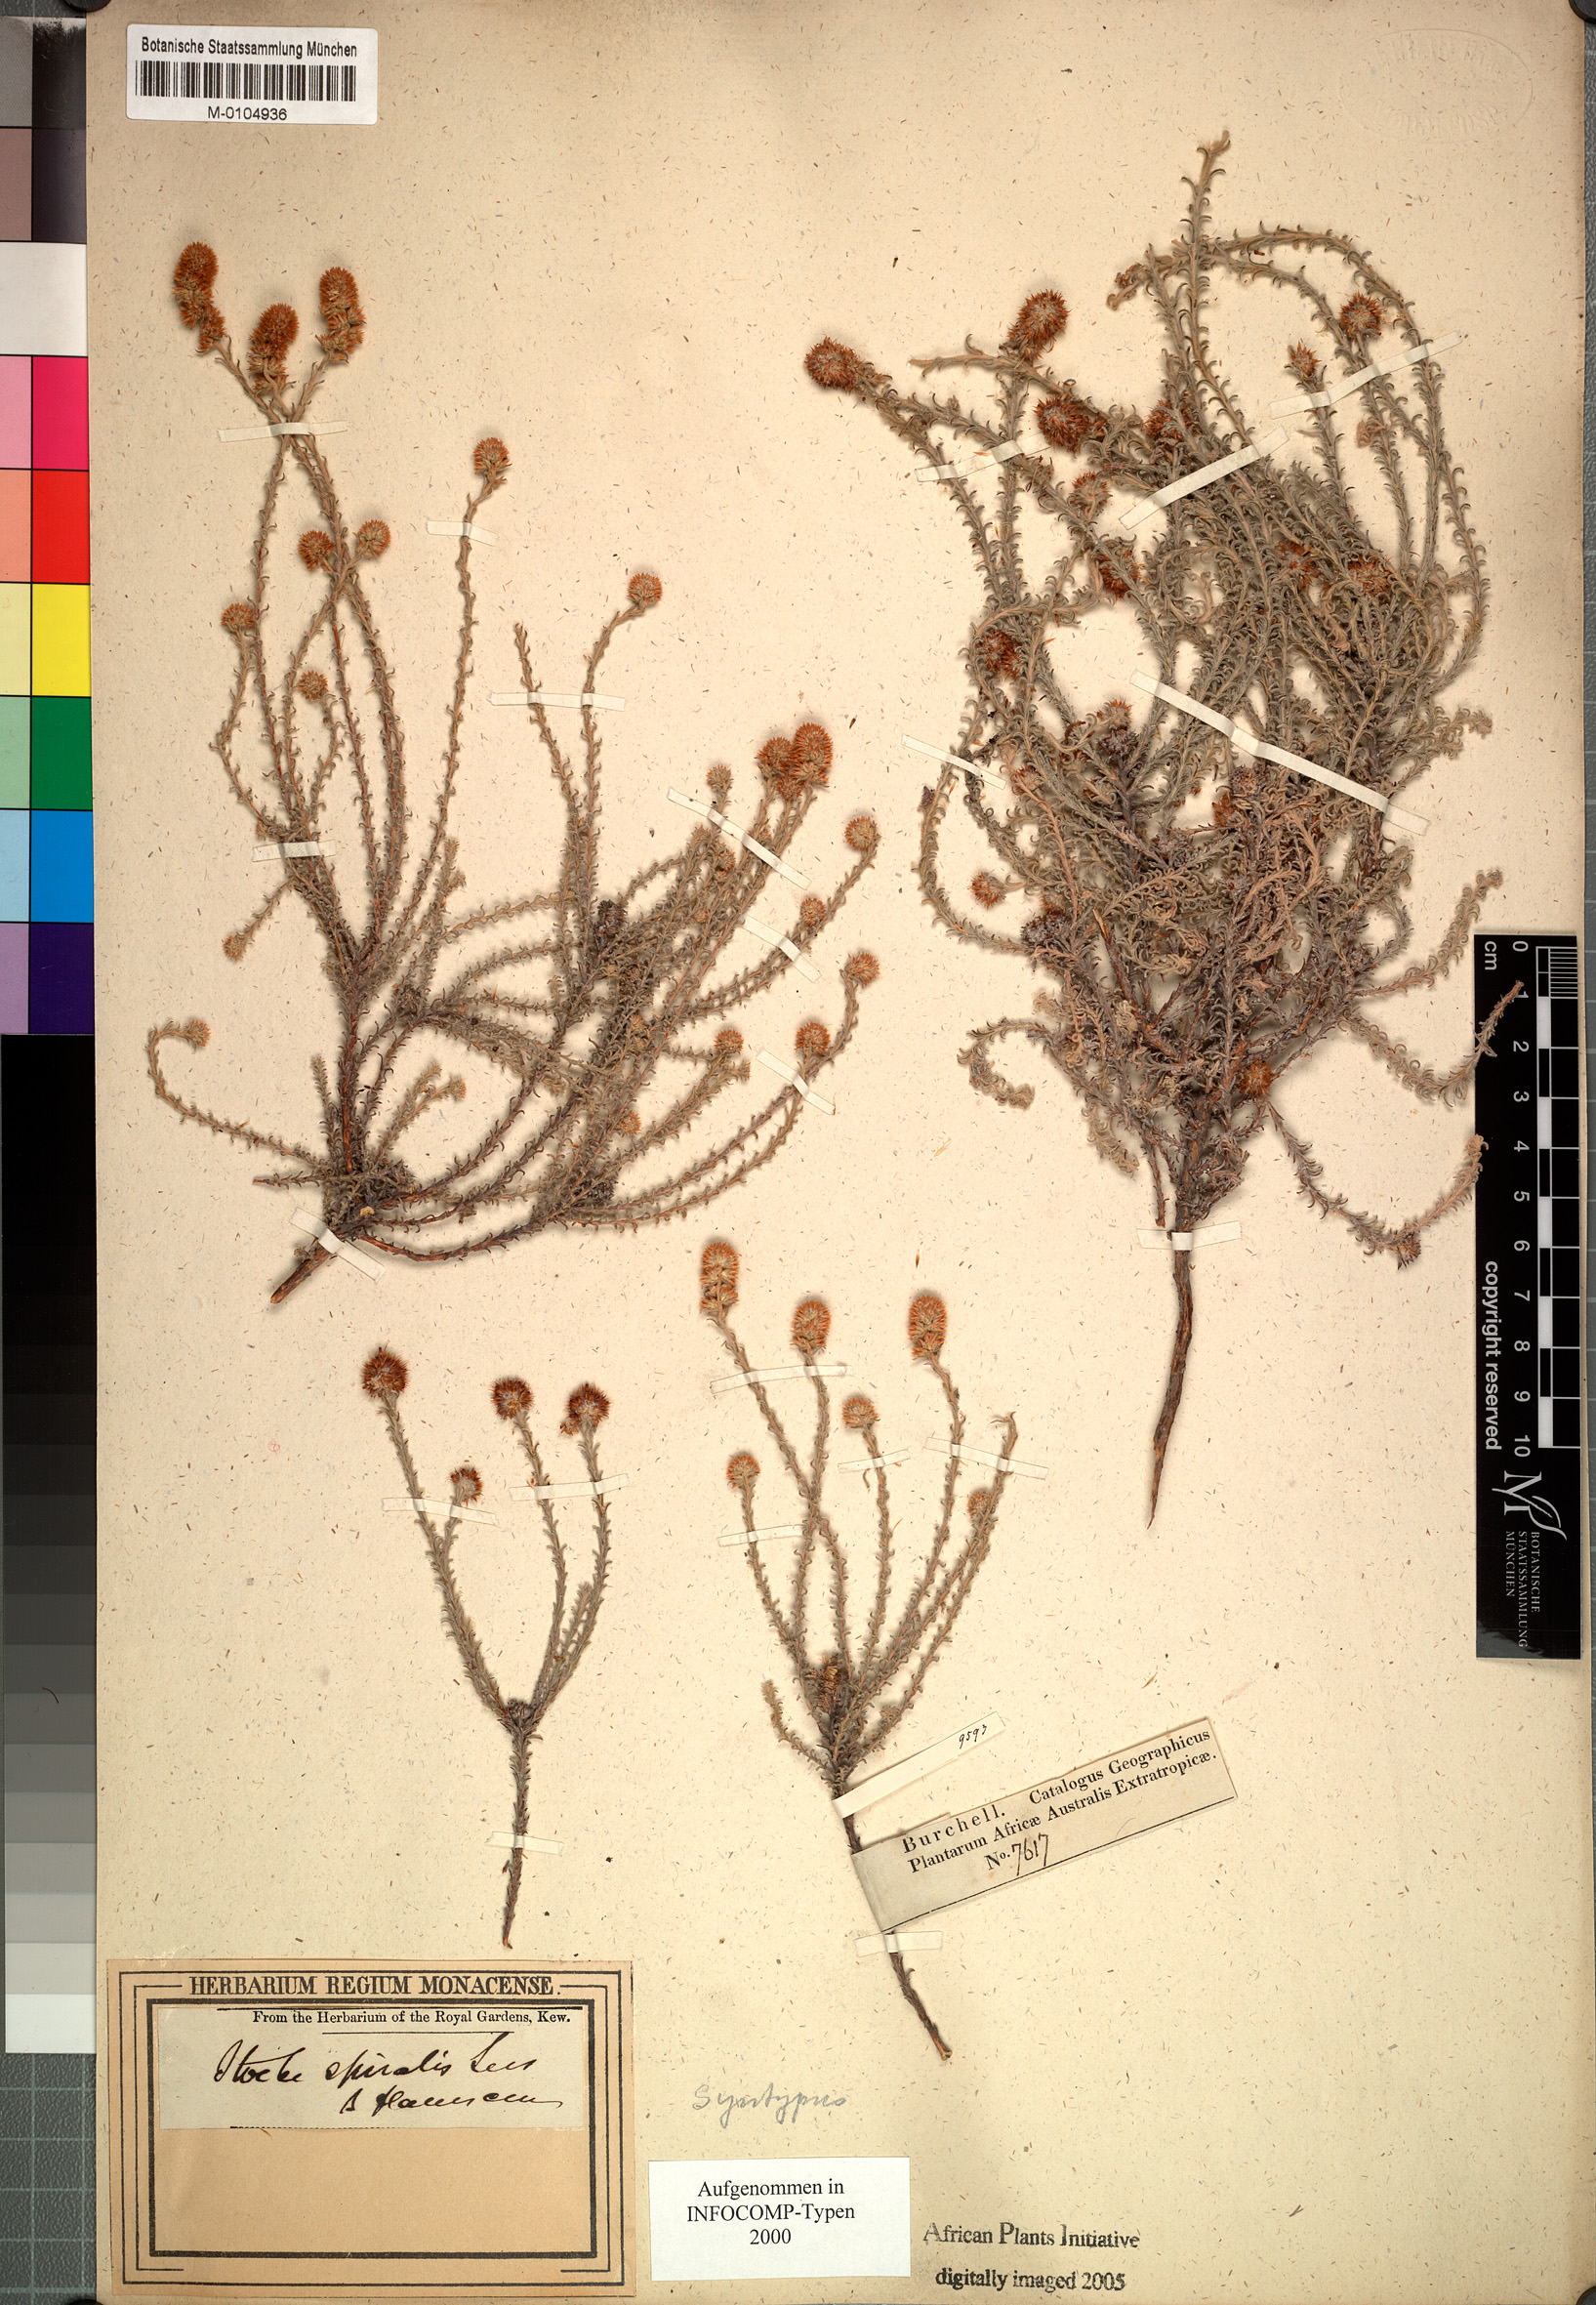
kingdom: Plantae
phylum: Tracheophyta
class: Magnoliopsida
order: Asterales
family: Asteraceae
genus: Seriphium
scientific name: Seriphium spirale
